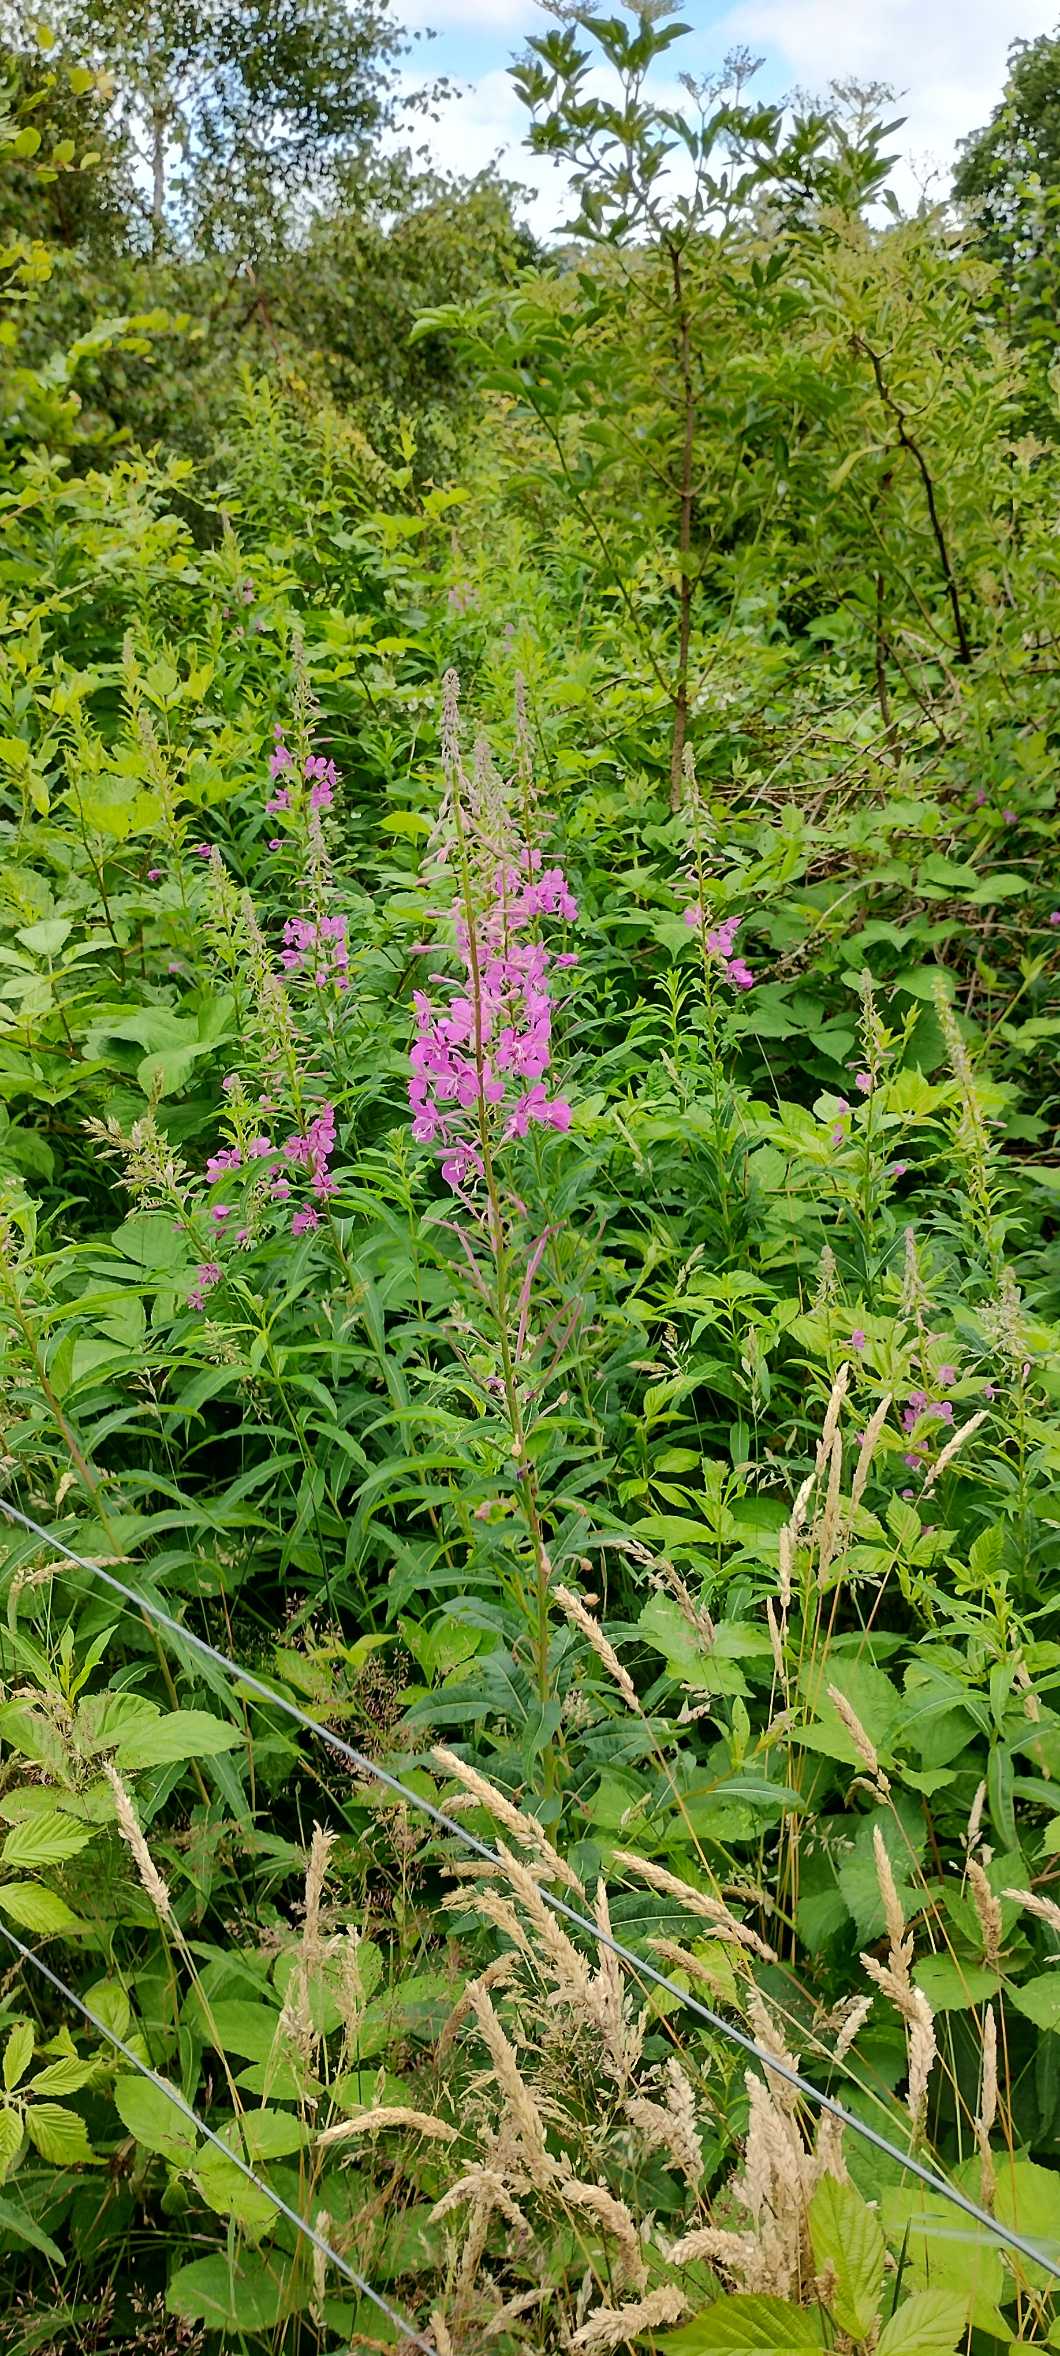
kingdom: Plantae
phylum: Tracheophyta
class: Magnoliopsida
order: Myrtales
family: Onagraceae
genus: Chamaenerion
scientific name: Chamaenerion angustifolium
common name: Gederams
